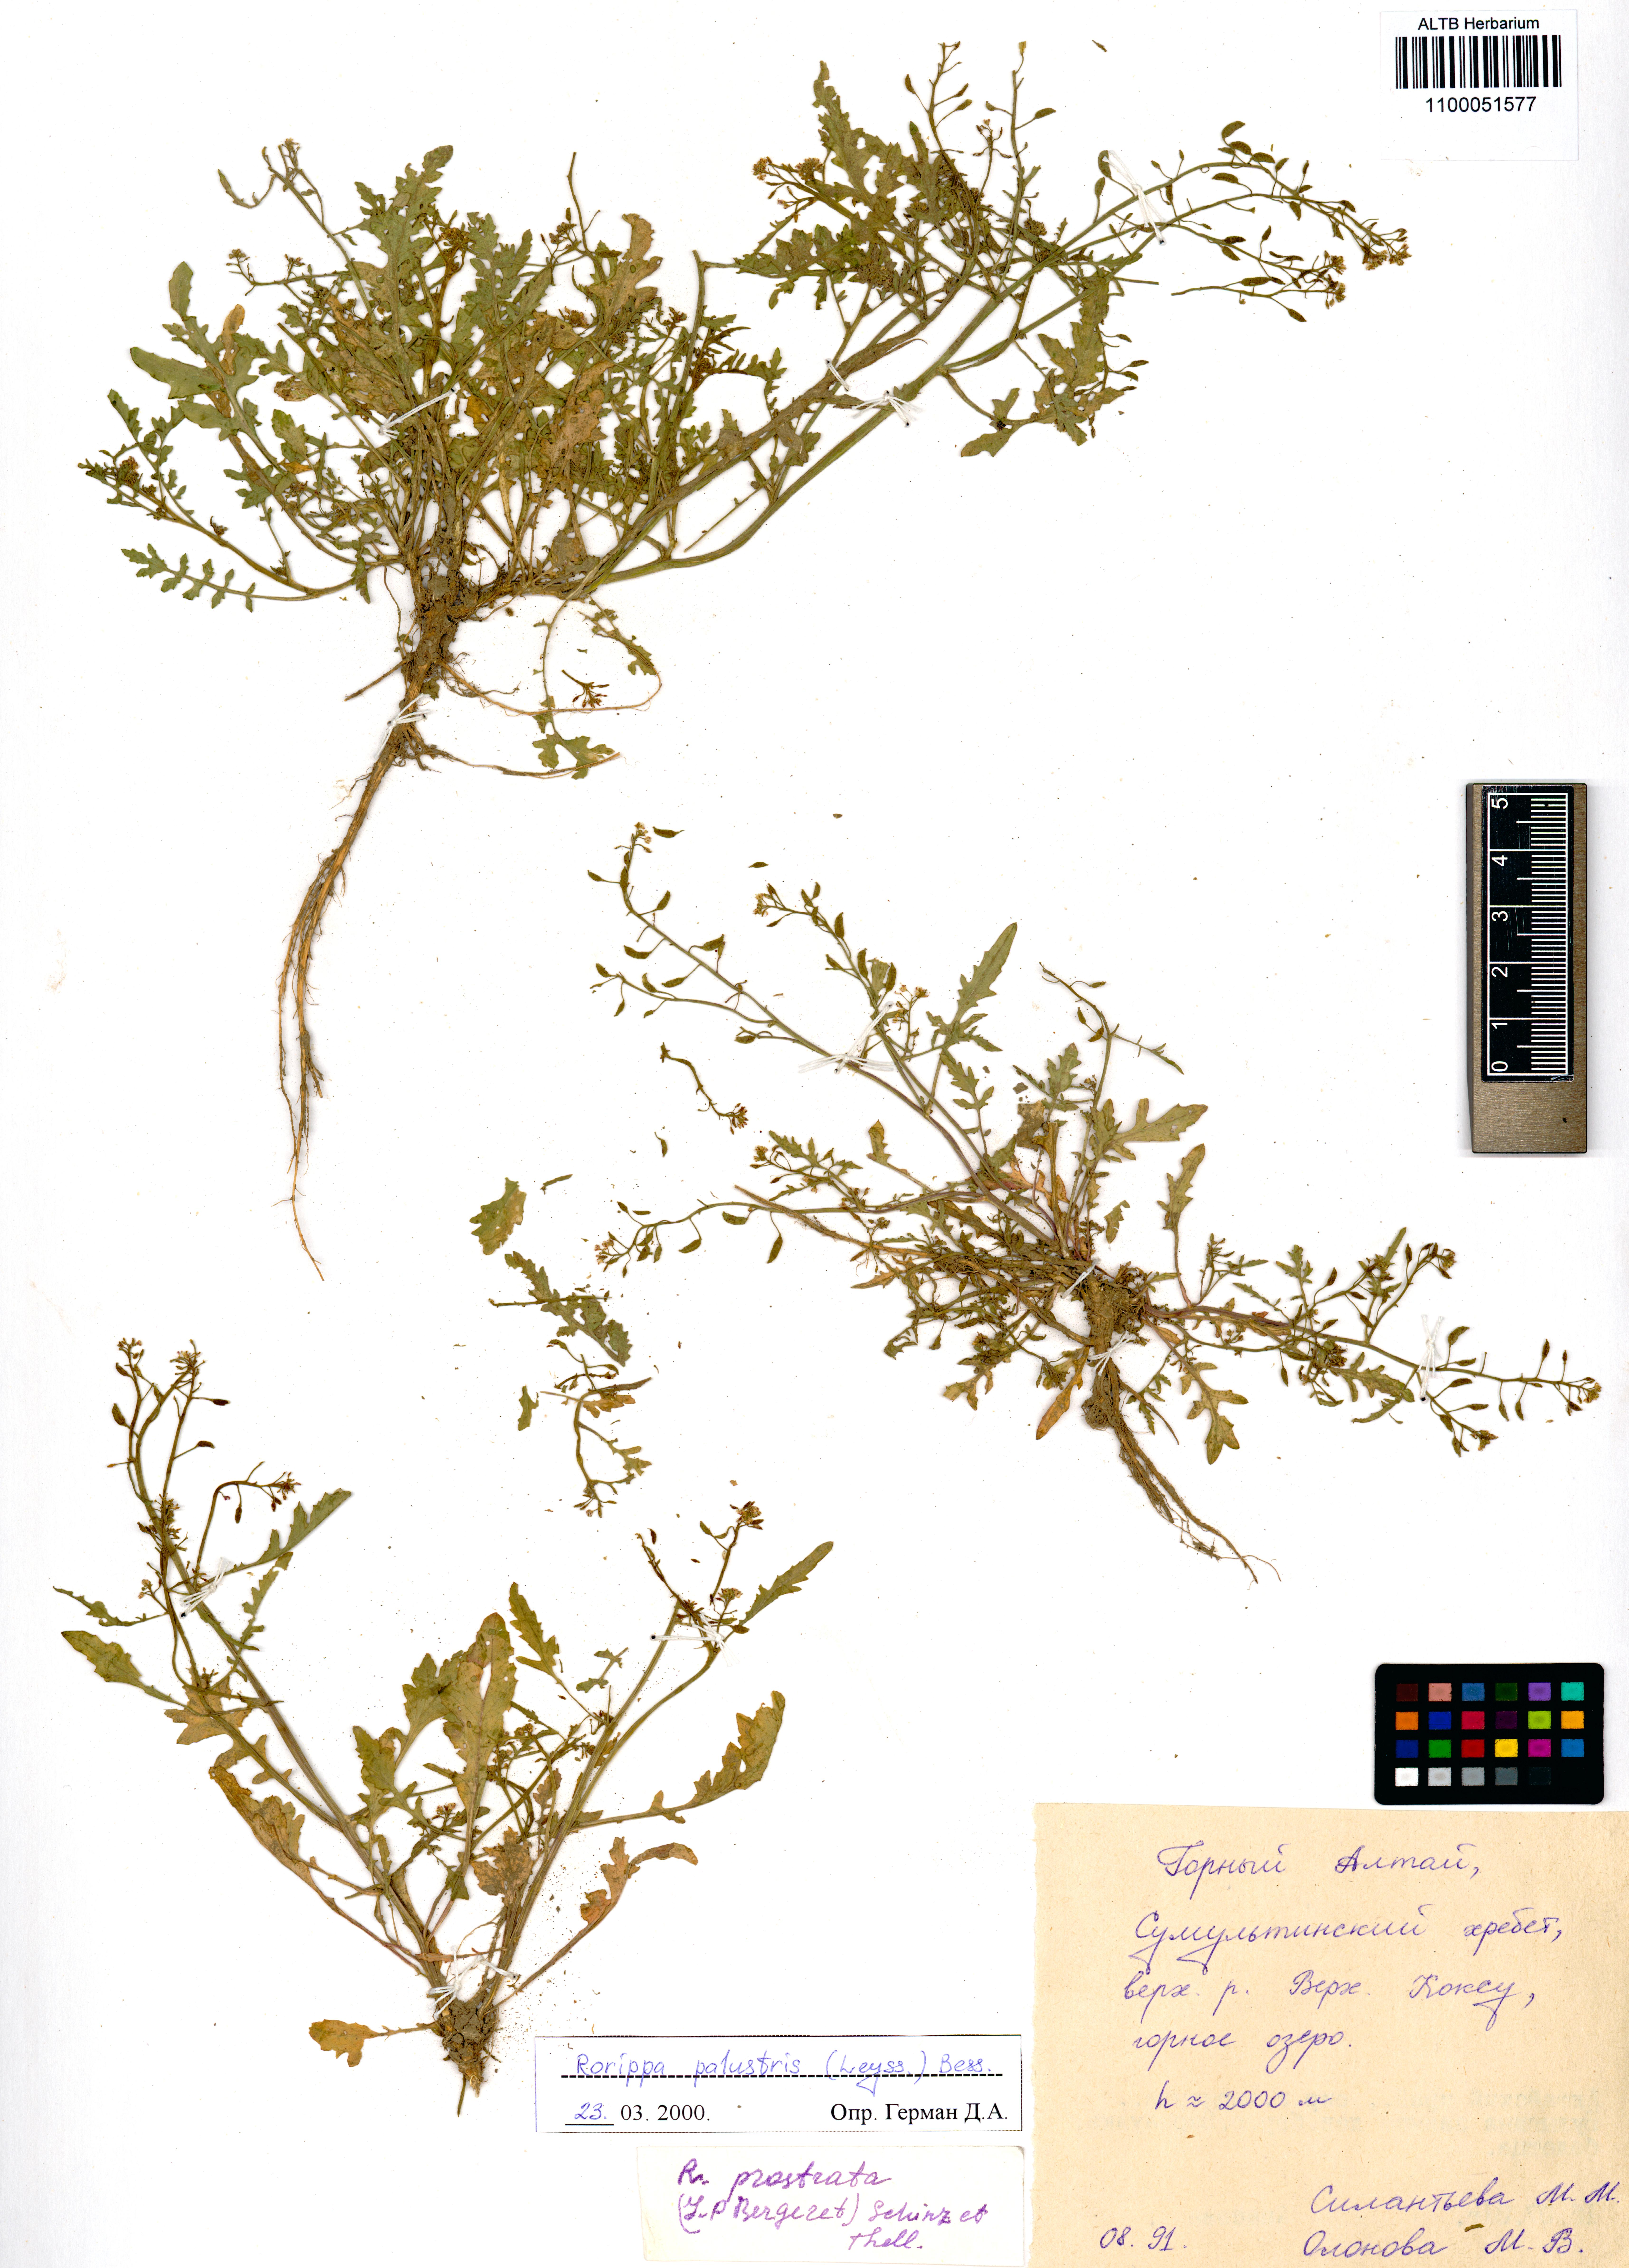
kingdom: Plantae
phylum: Tracheophyta
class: Magnoliopsida
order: Brassicales
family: Brassicaceae
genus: Rorippa
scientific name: Rorippa palustris
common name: Marsh yellow-cress
